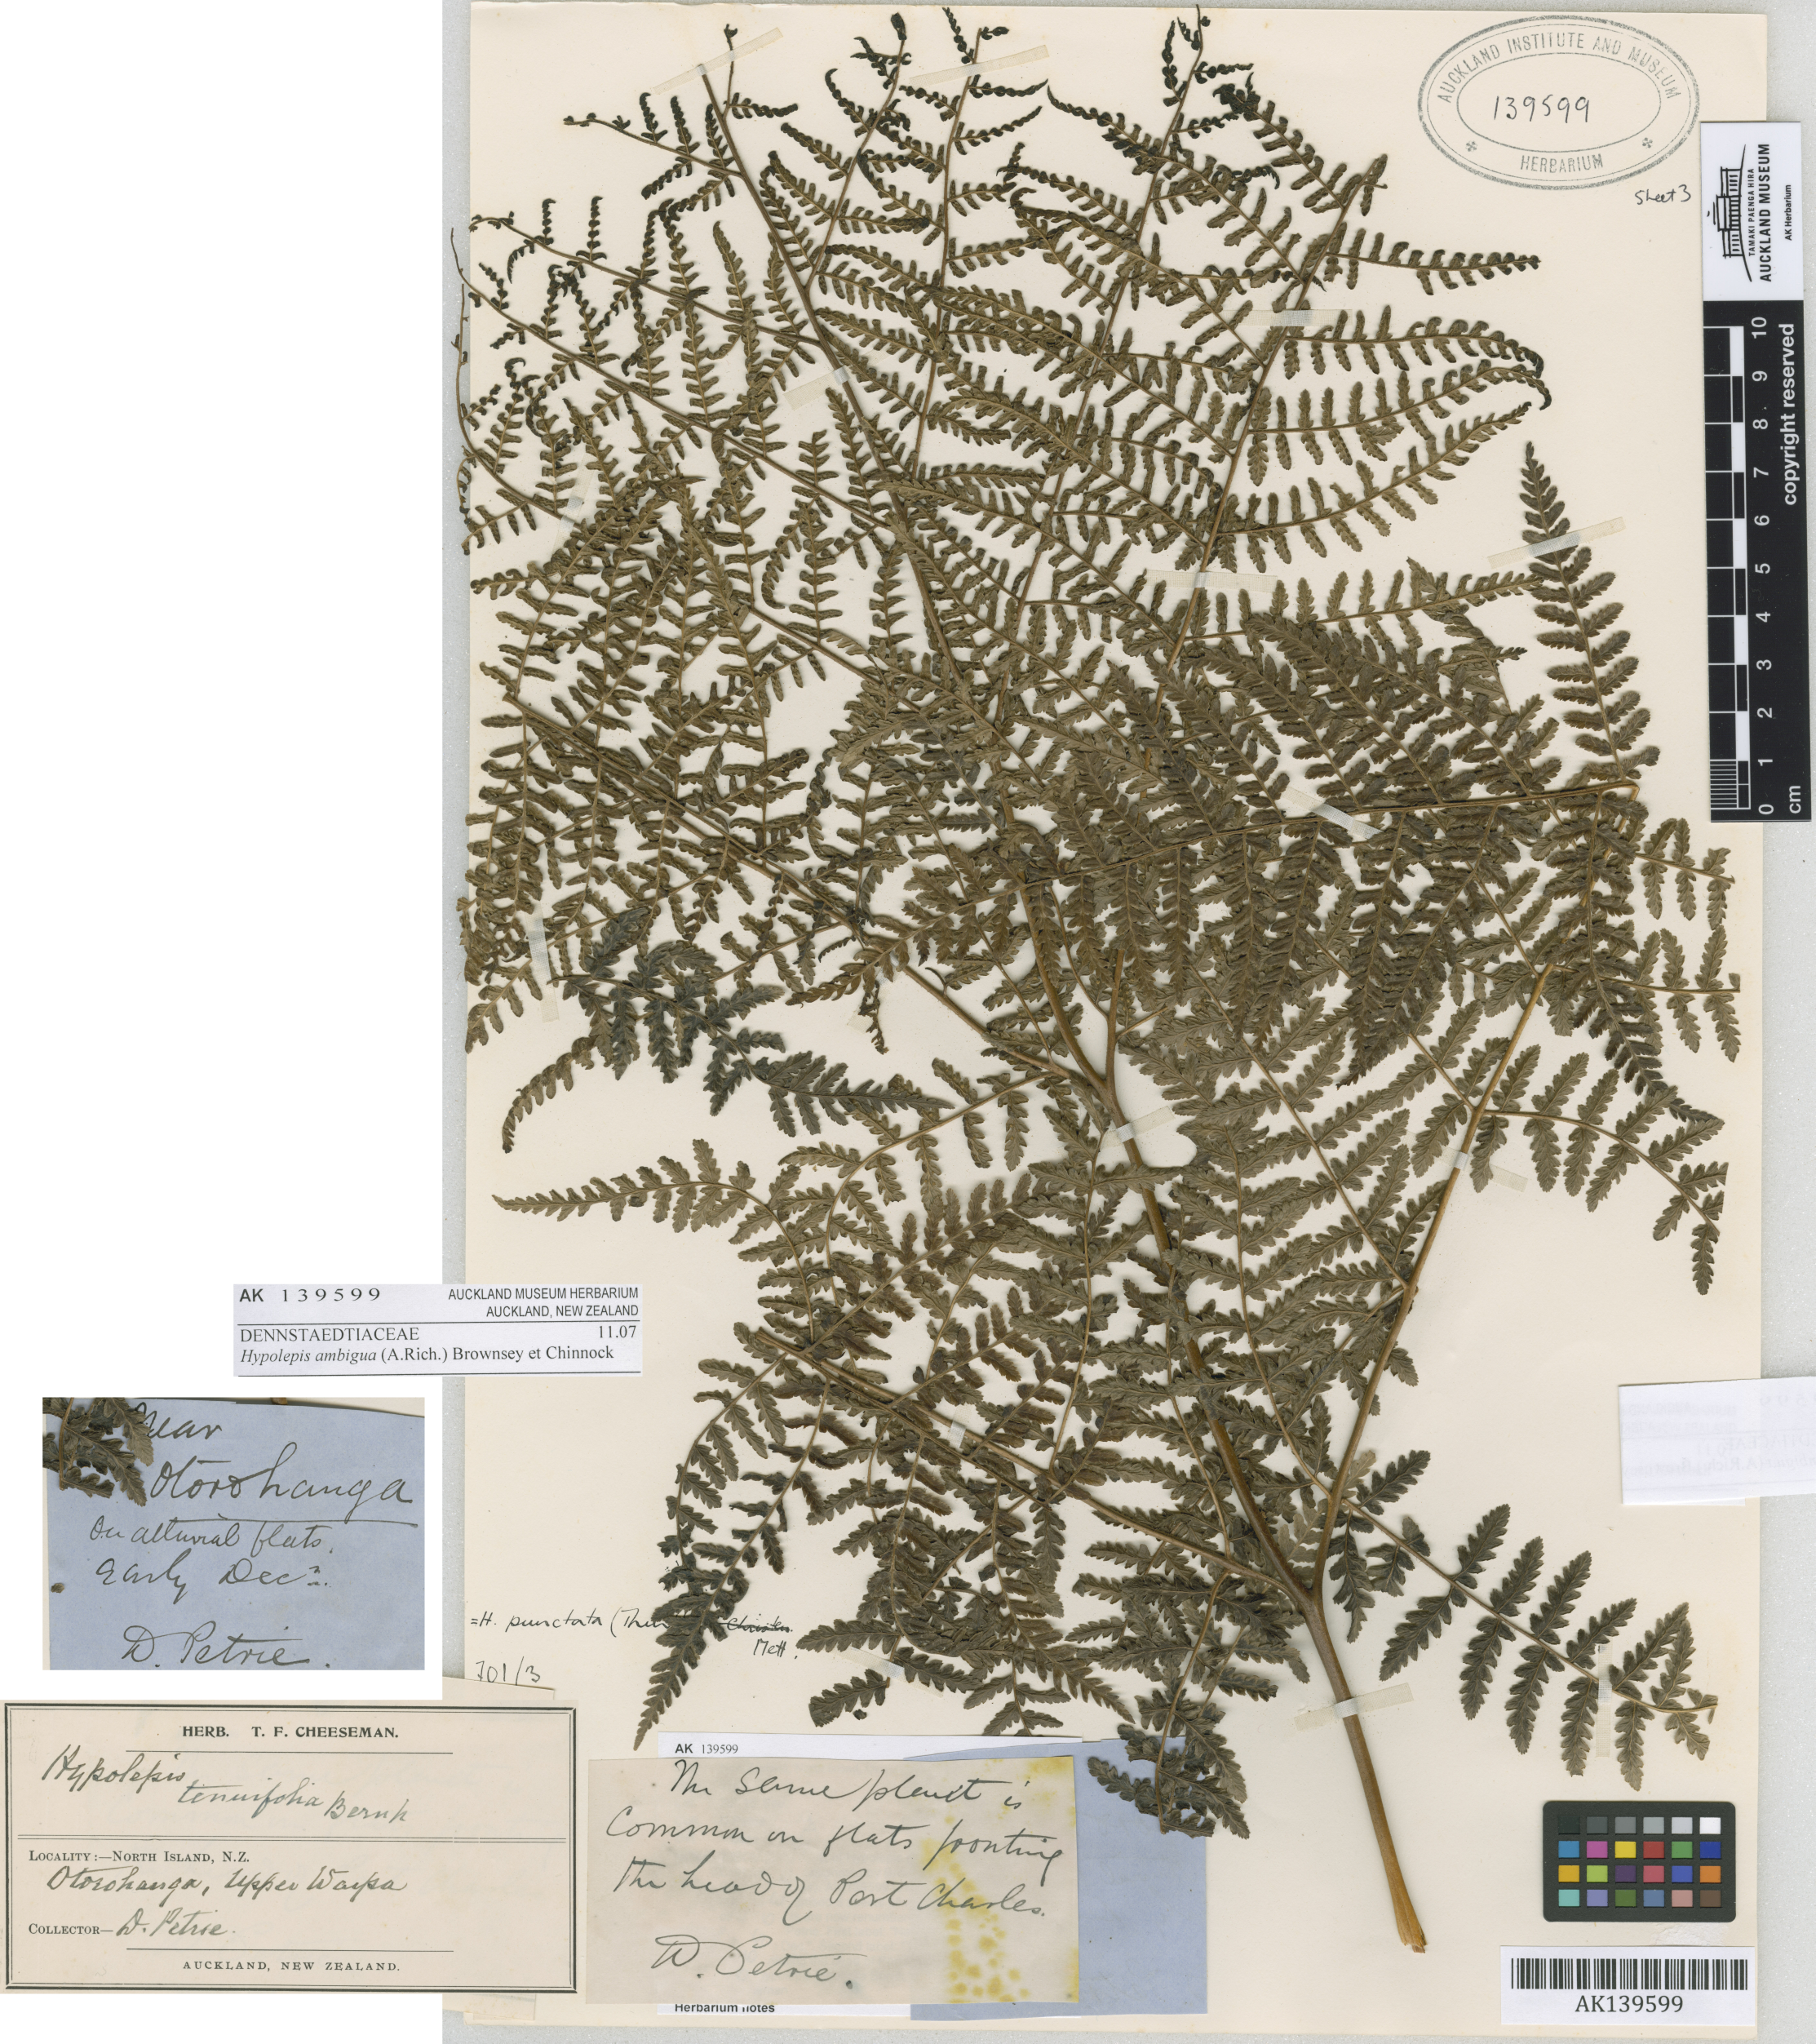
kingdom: Plantae
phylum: Tracheophyta
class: Polypodiopsida
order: Polypodiales
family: Dennstaedtiaceae
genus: Hypolepis
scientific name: Hypolepis ambigua
